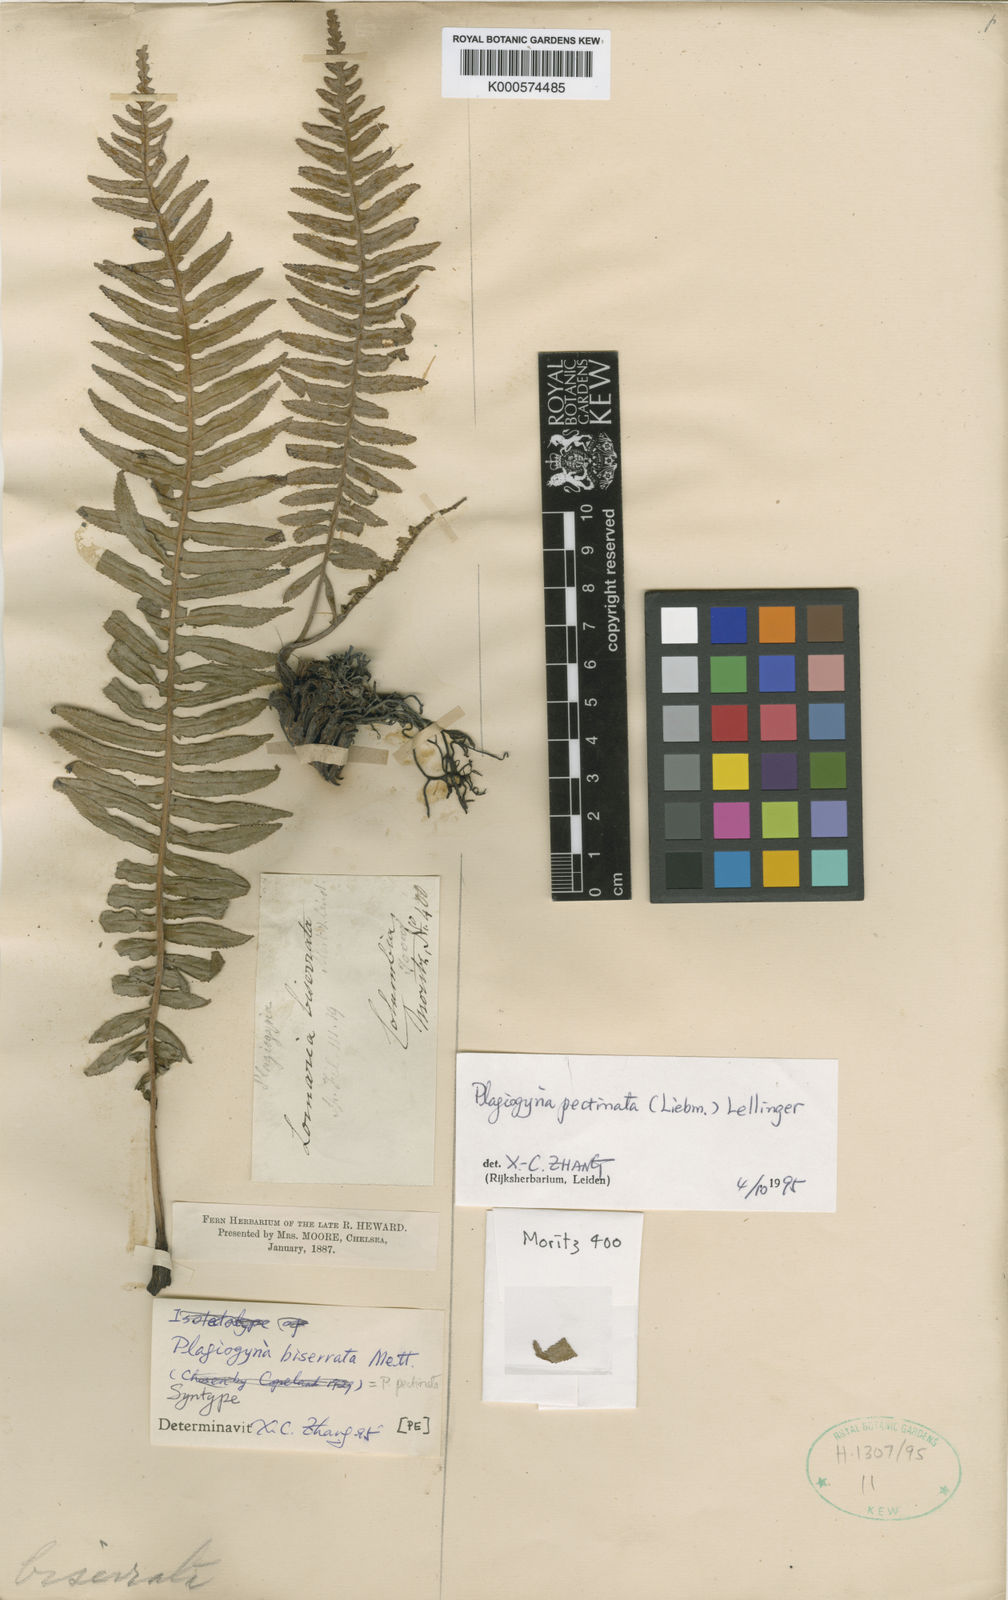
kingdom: Plantae
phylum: Tracheophyta
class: Polypodiopsida
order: Cyatheales
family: Plagiogyriaceae
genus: Plagiogyria
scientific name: Plagiogyria pectinata
